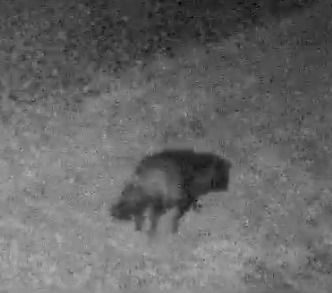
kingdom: Animalia
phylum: Chordata
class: Mammalia
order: Carnivora
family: Canidae
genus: Nyctereutes
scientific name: Nyctereutes procyonoides
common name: Mårhund
